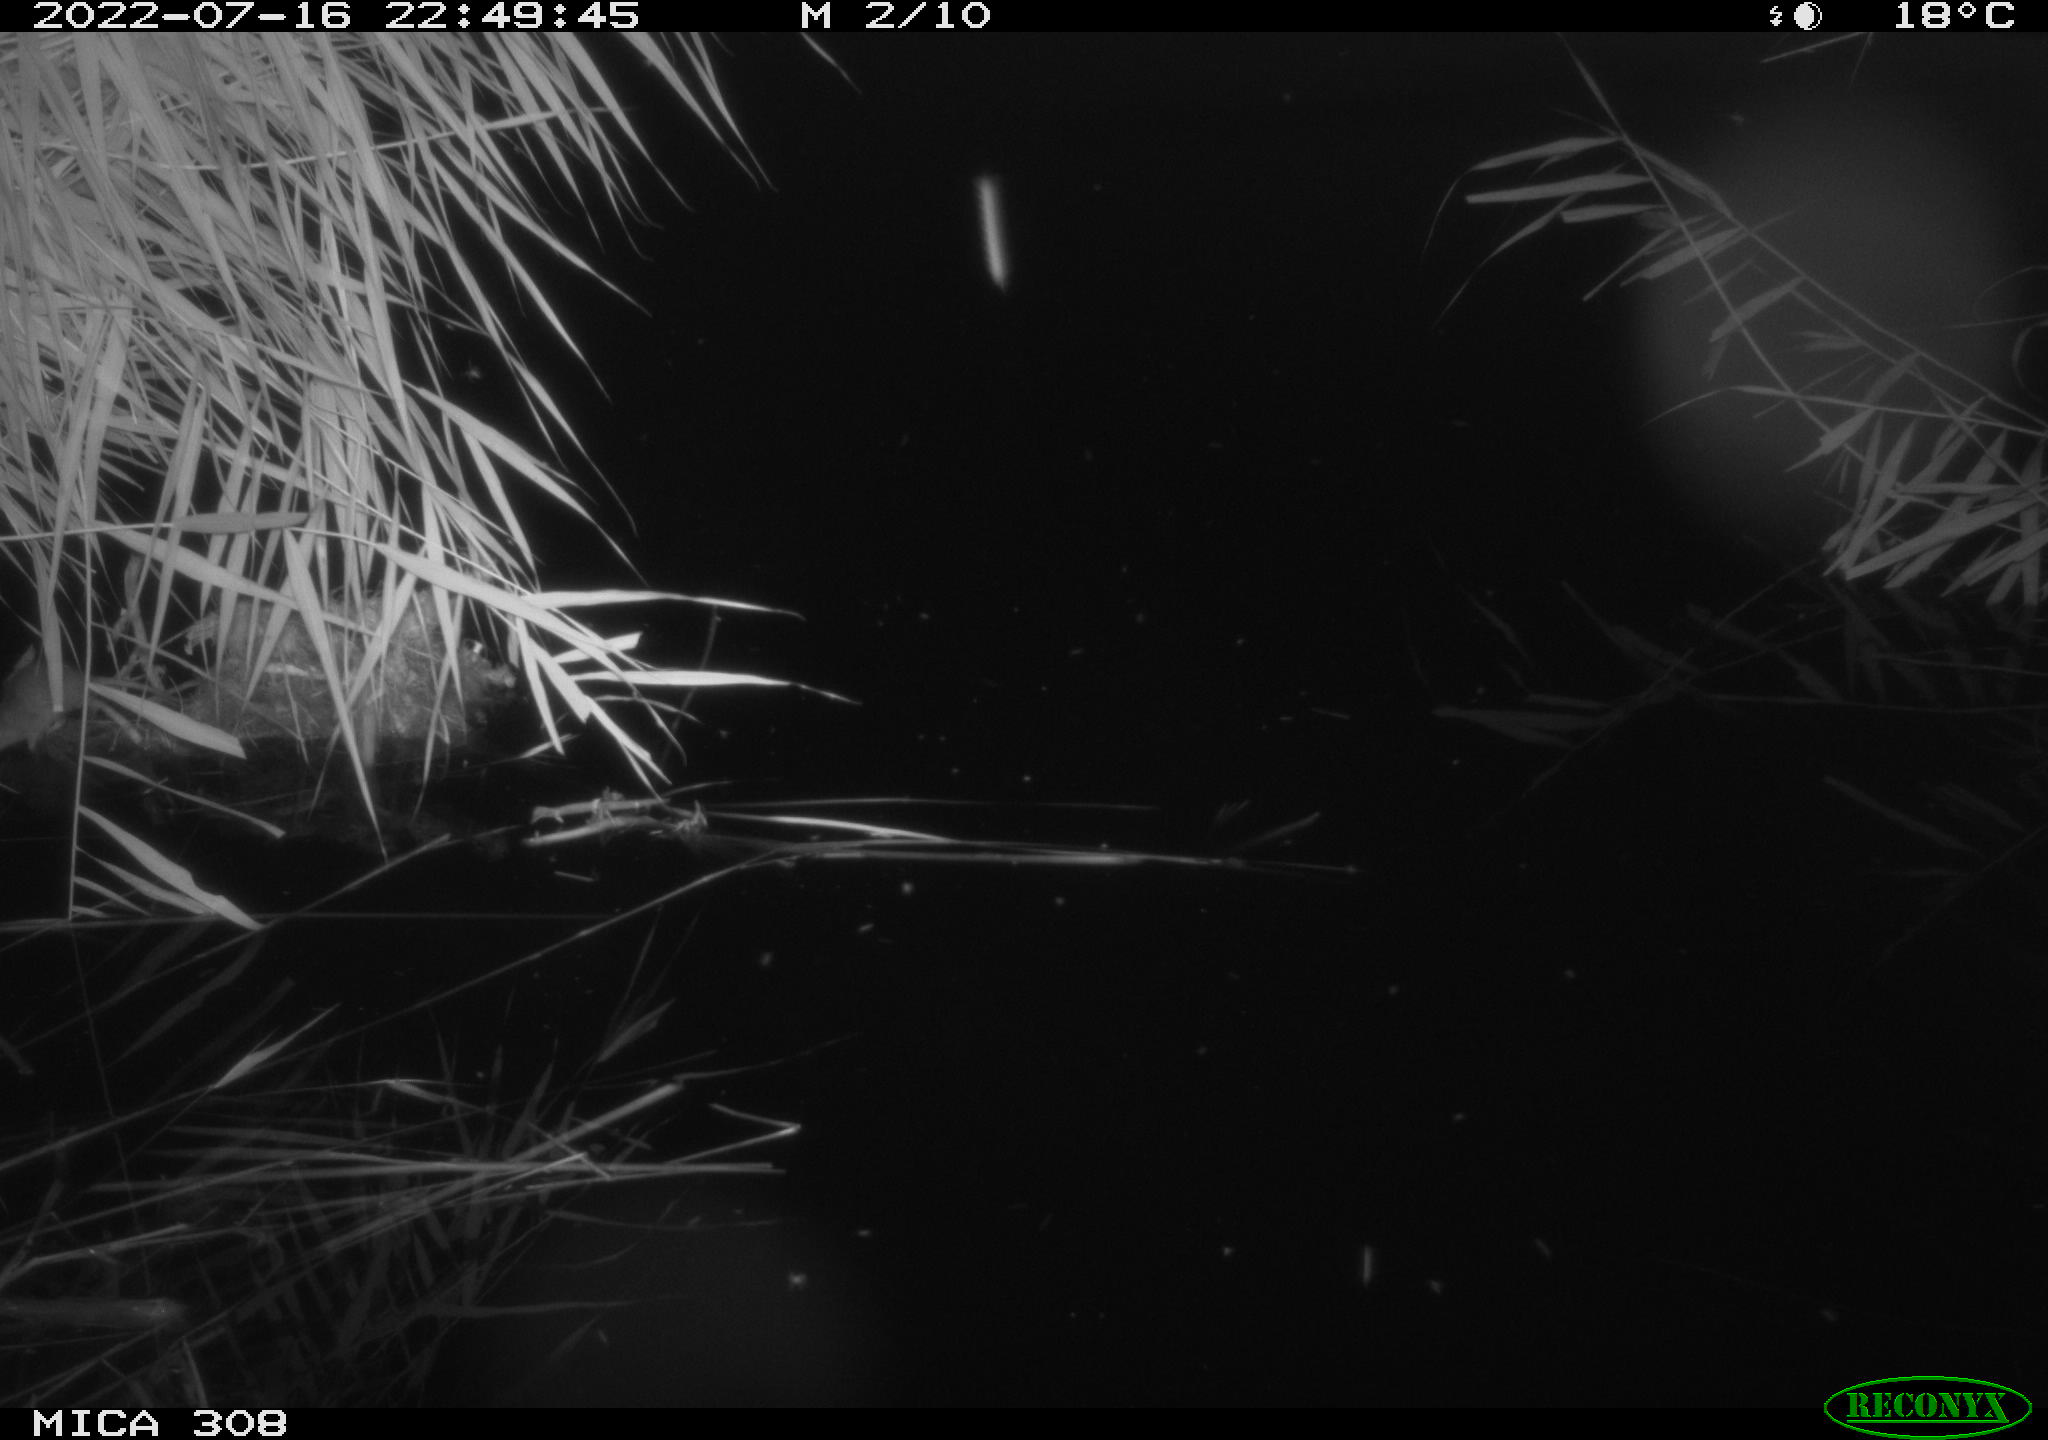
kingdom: Animalia
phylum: Chordata
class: Mammalia
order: Rodentia
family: Muridae
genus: Rattus
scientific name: Rattus norvegicus
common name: Brown rat
